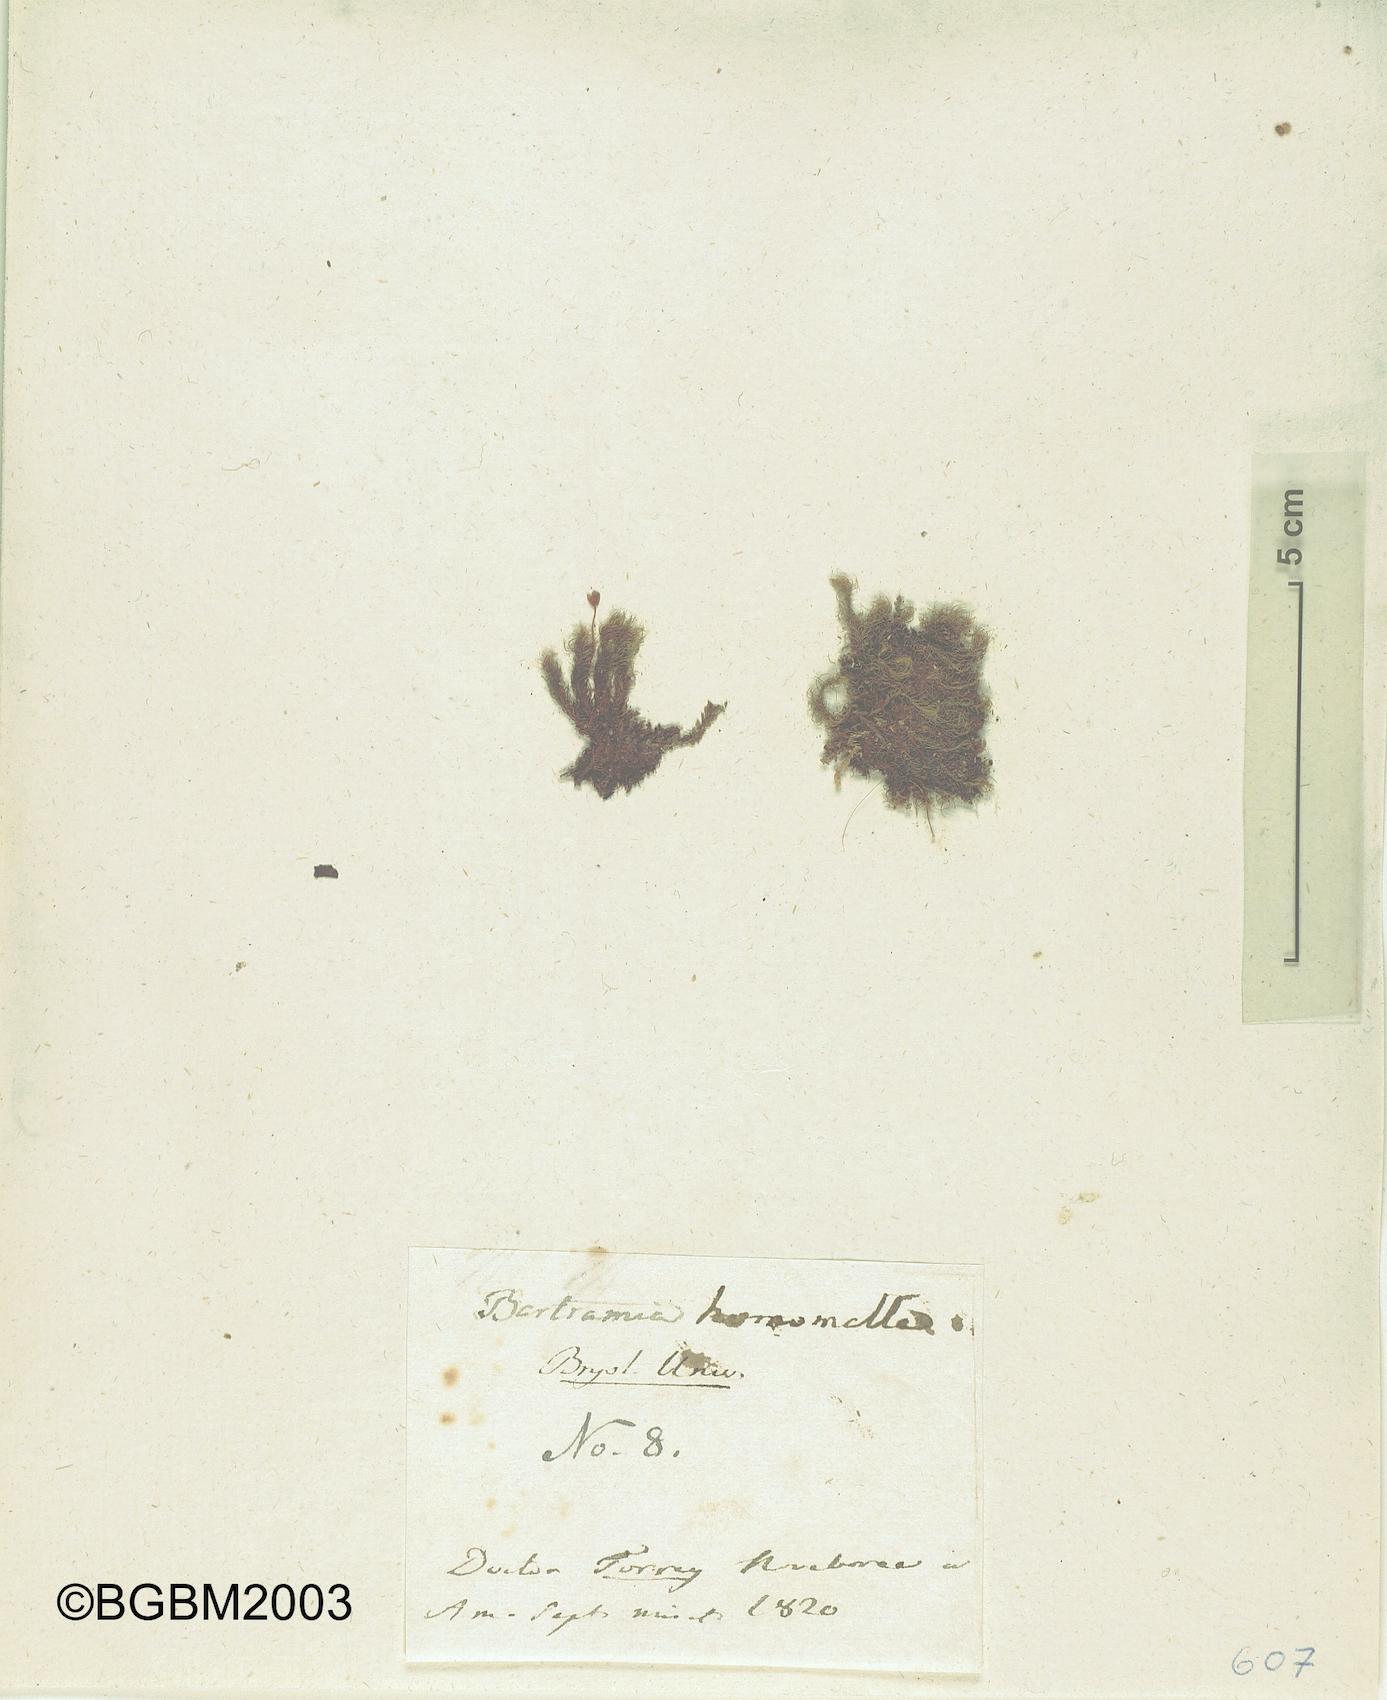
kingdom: Plantae
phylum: Bryophyta
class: Bryopsida
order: Bartramiales
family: Bartramiaceae
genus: Bartramia
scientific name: Bartramia pomiformis
